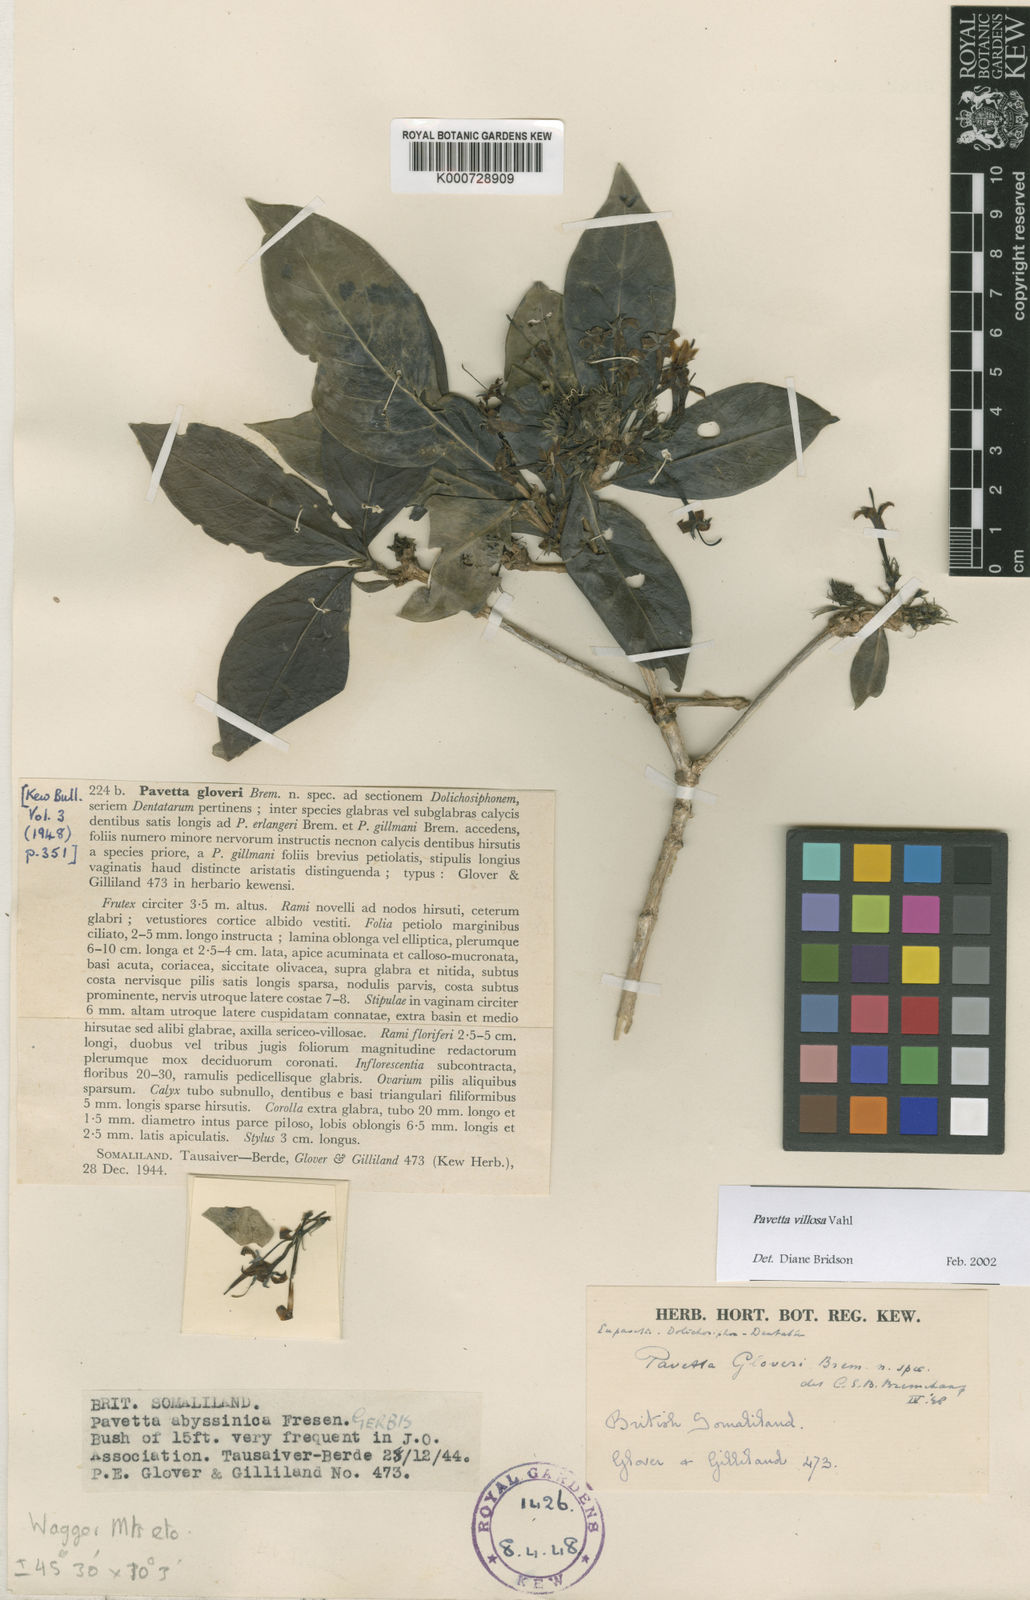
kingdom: Plantae
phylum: Tracheophyta
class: Magnoliopsida
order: Gentianales
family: Rubiaceae
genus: Pavetta
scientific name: Pavetta villosa
